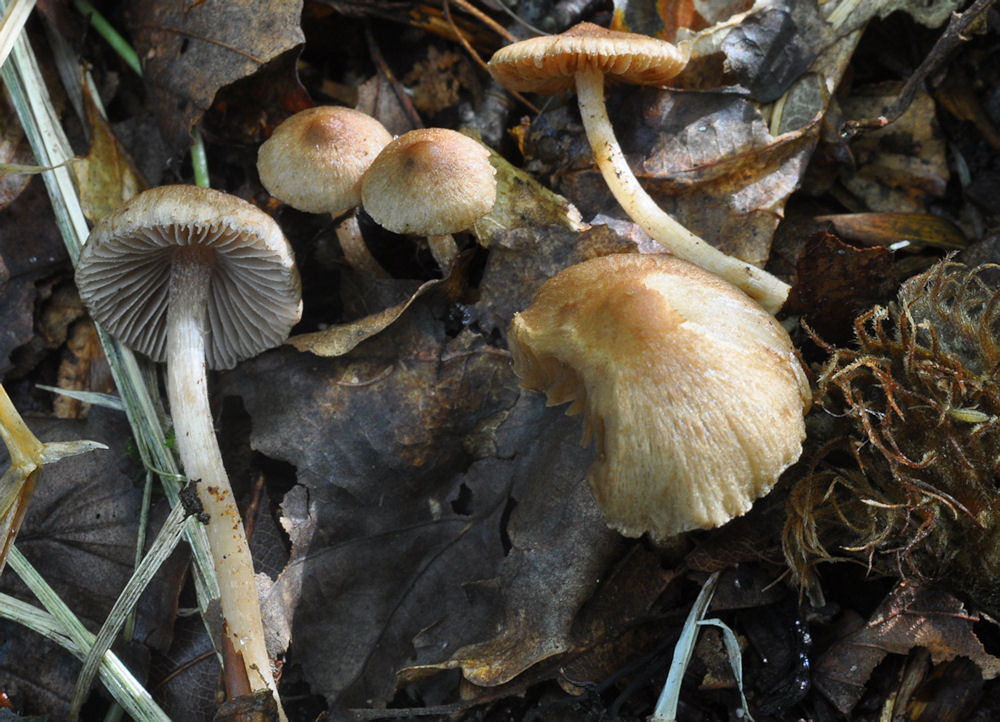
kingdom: Fungi
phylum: Basidiomycota
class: Agaricomycetes
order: Agaricales
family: Inocybaceae
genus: Inocybe
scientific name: Inocybe glabripes
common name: småsporet trævlhat
